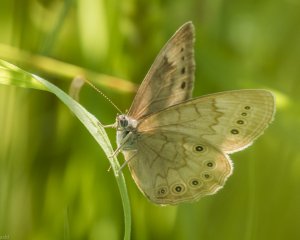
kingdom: Animalia
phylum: Arthropoda
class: Insecta
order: Lepidoptera
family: Nymphalidae
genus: Lethe
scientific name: Lethe eurydice
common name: Eyed Brown
